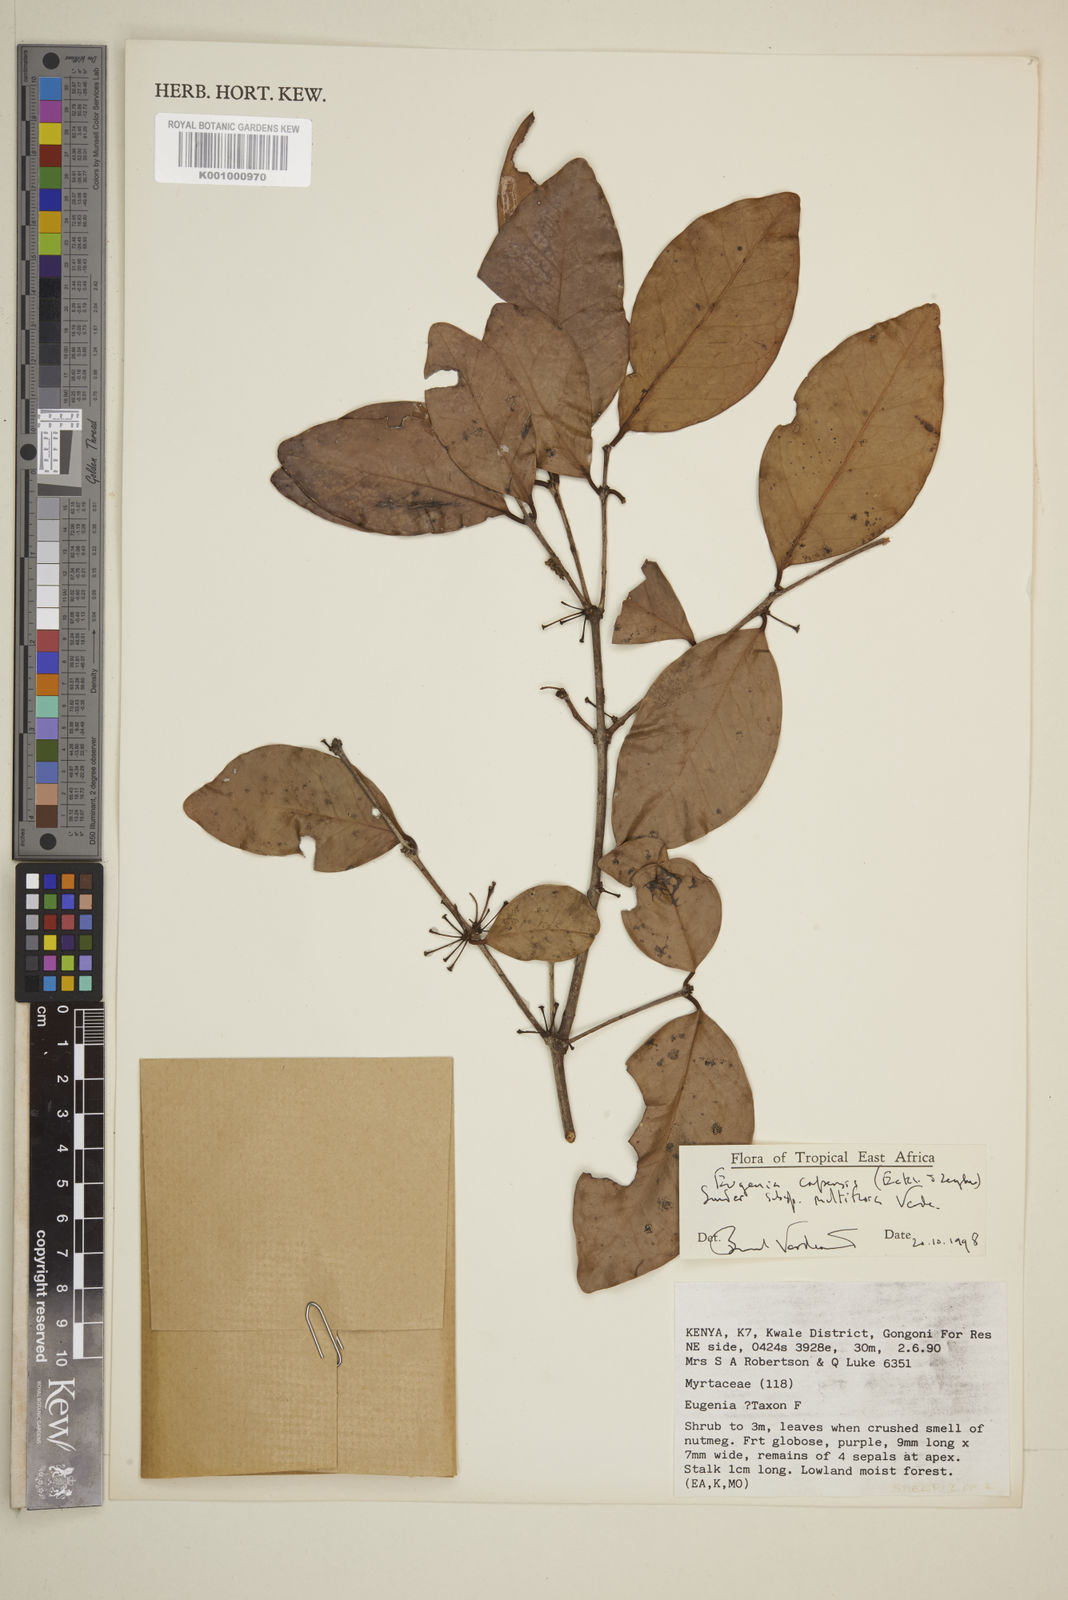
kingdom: Plantae
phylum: Tracheophyta
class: Magnoliopsida
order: Myrtales
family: Myrtaceae
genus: Eugenia
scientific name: Eugenia capensis
